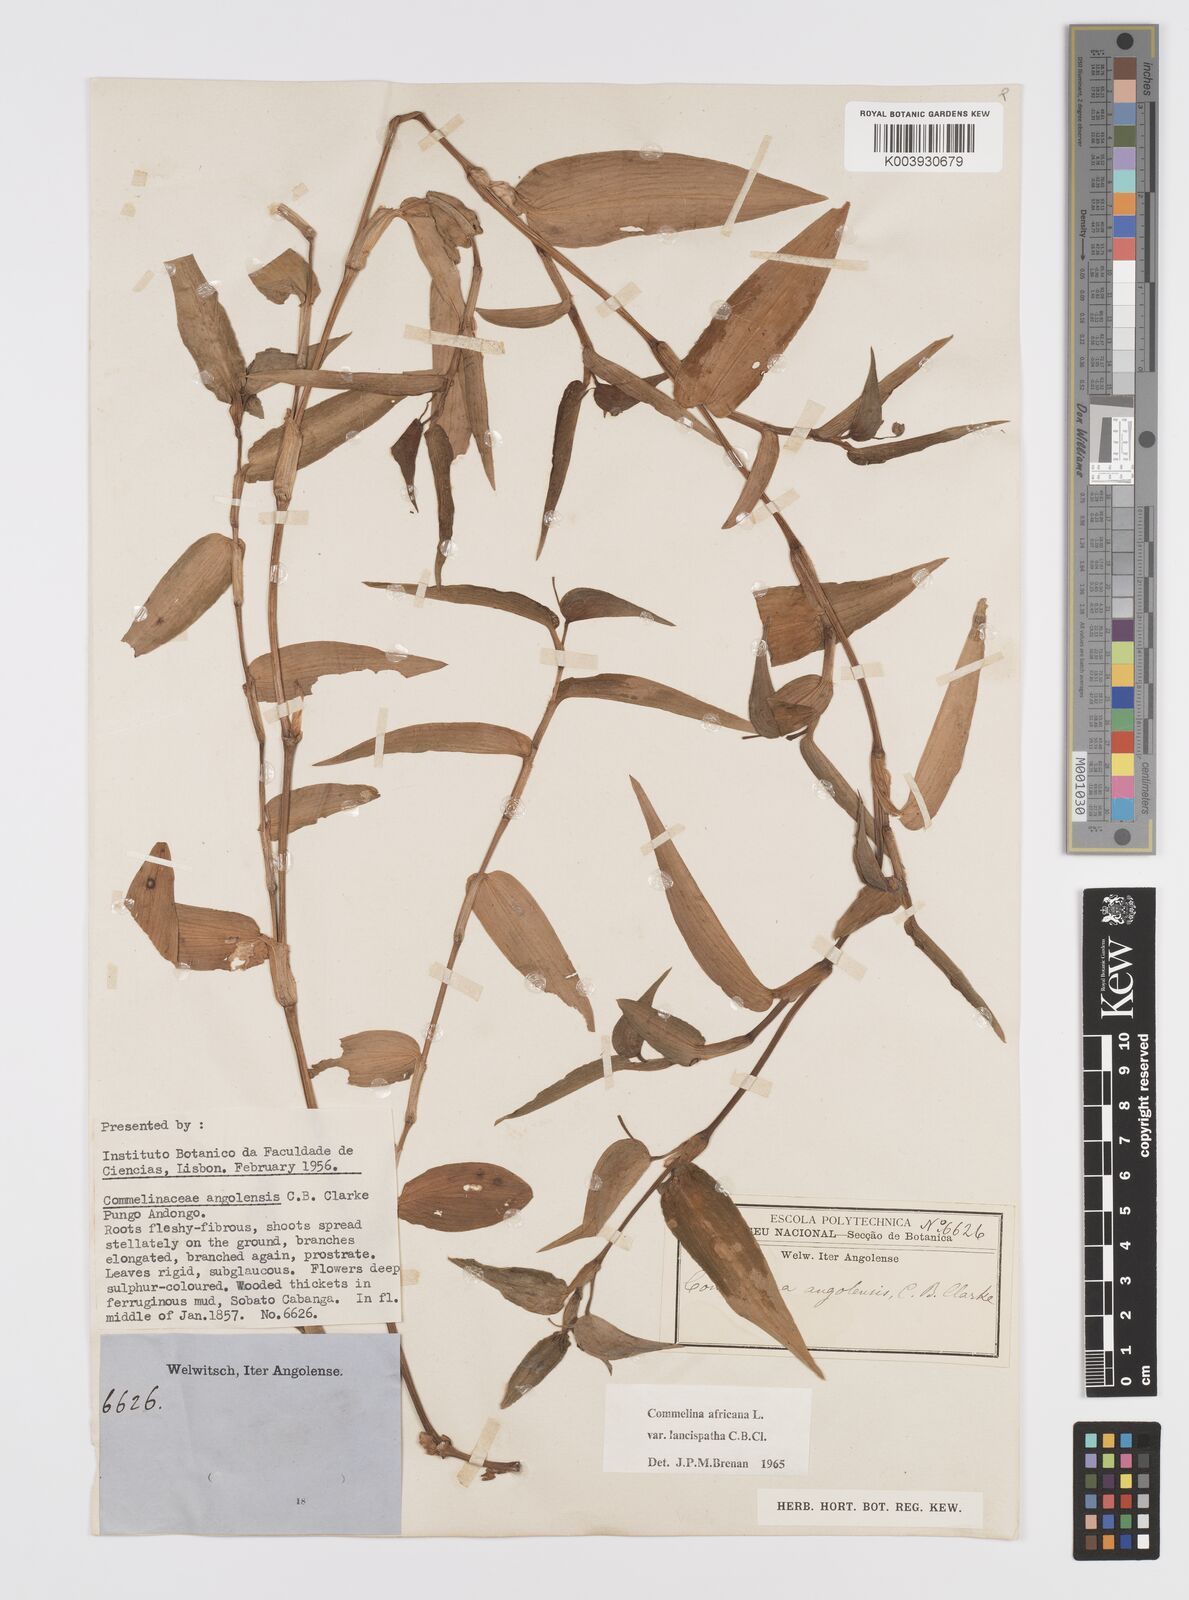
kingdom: Plantae
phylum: Tracheophyta
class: Liliopsida
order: Commelinales
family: Commelinaceae
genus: Commelina
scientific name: Commelina africana
